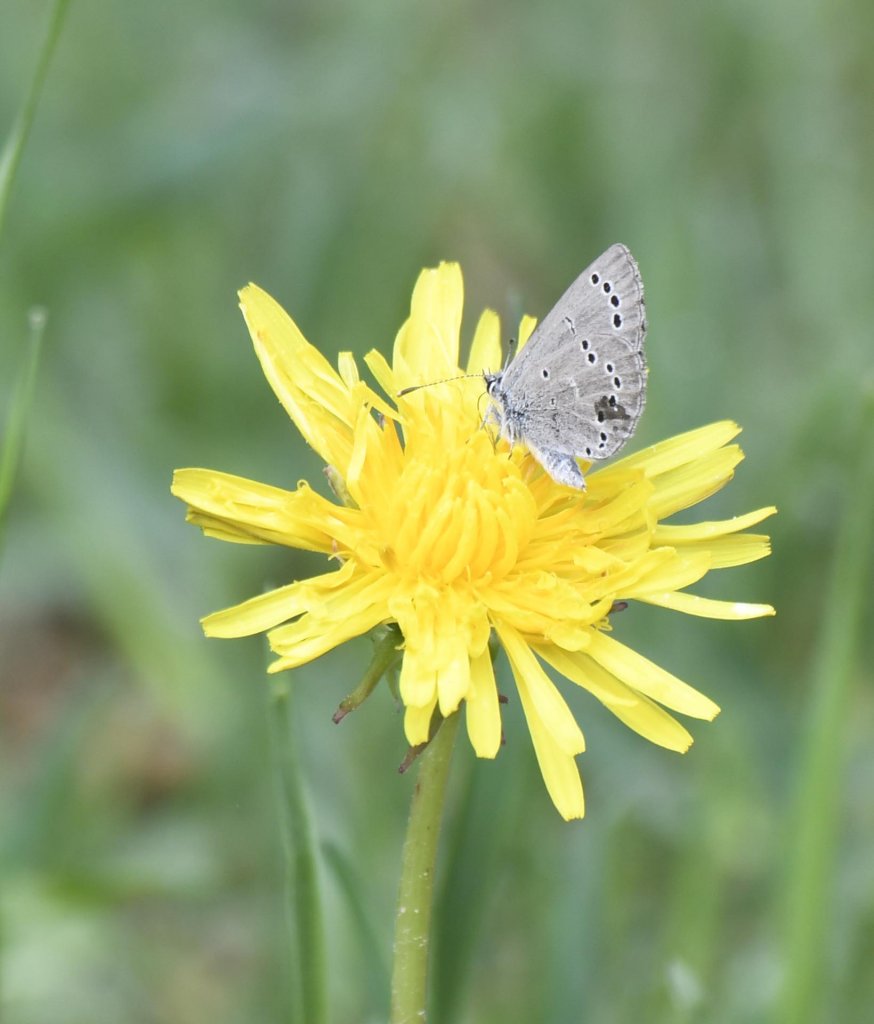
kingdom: Animalia
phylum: Arthropoda
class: Insecta
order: Lepidoptera
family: Lycaenidae
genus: Glaucopsyche
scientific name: Glaucopsyche lygdamus
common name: Silvery Blue
